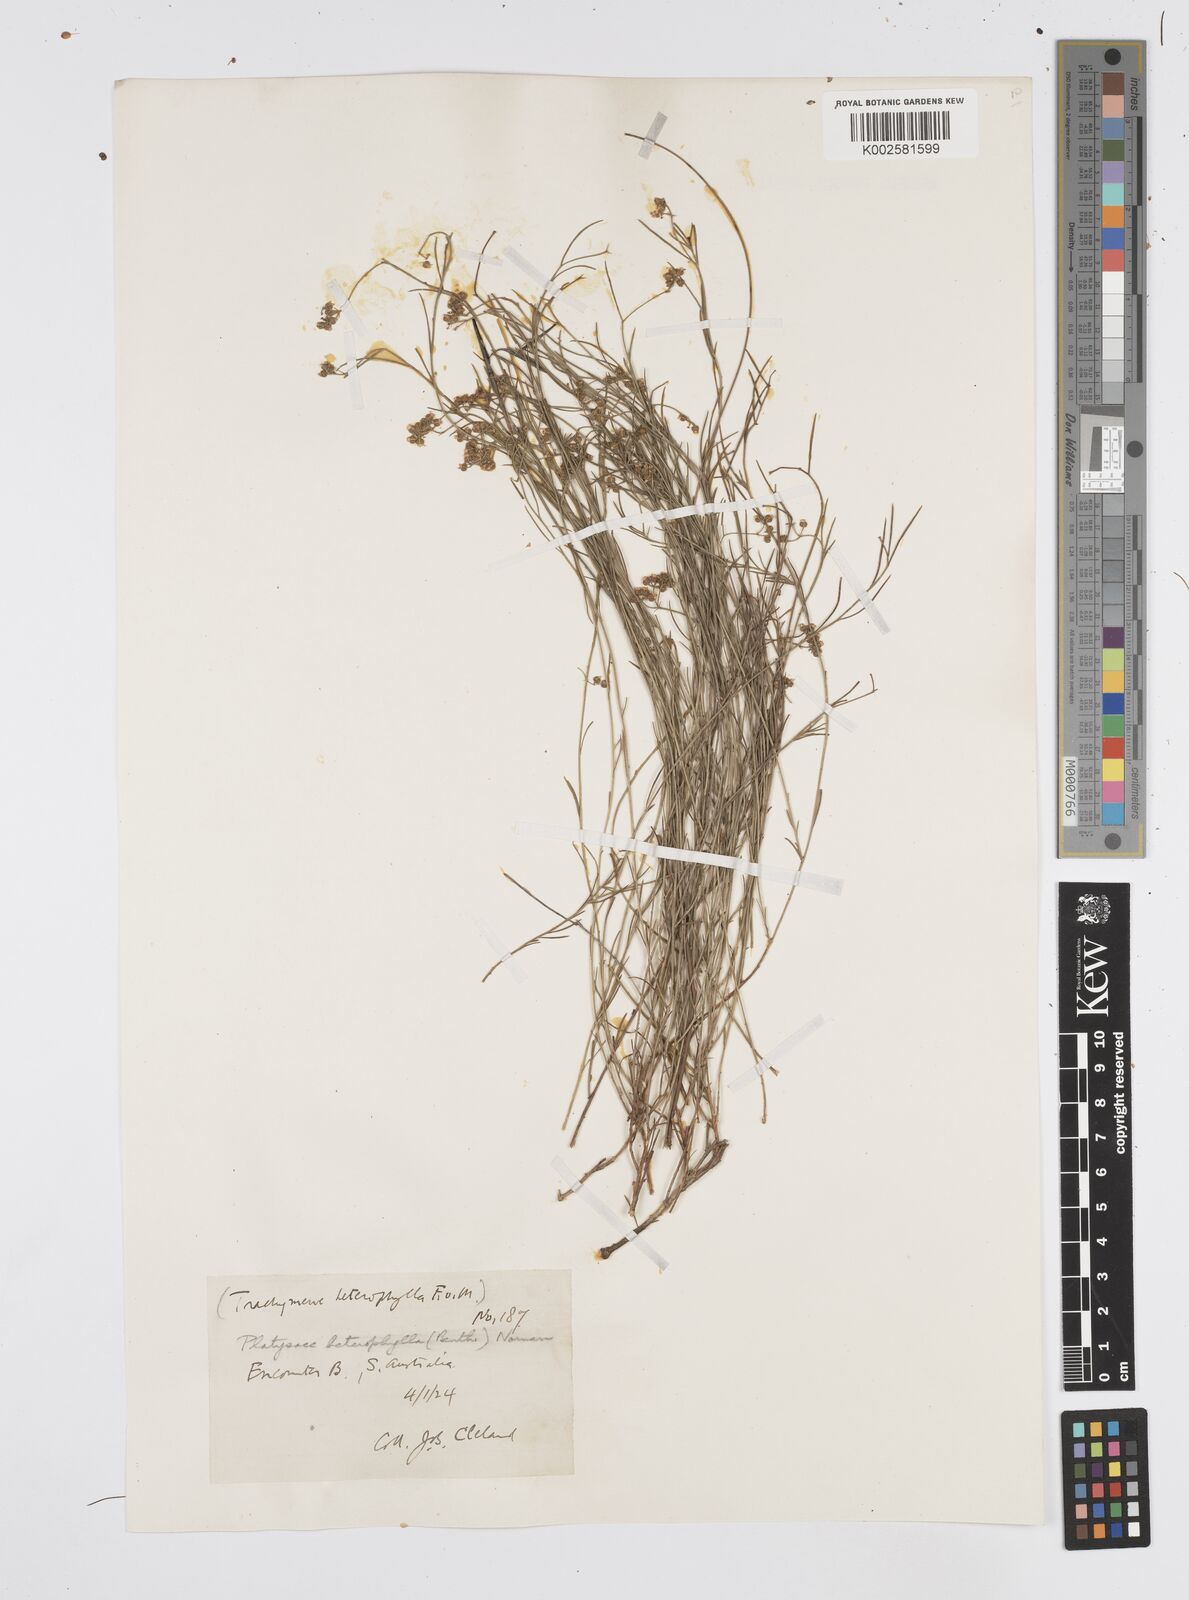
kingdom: Plantae
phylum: Tracheophyta
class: Magnoliopsida
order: Apiales
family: Apiaceae
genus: Platysace
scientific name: Platysace heterophylla
